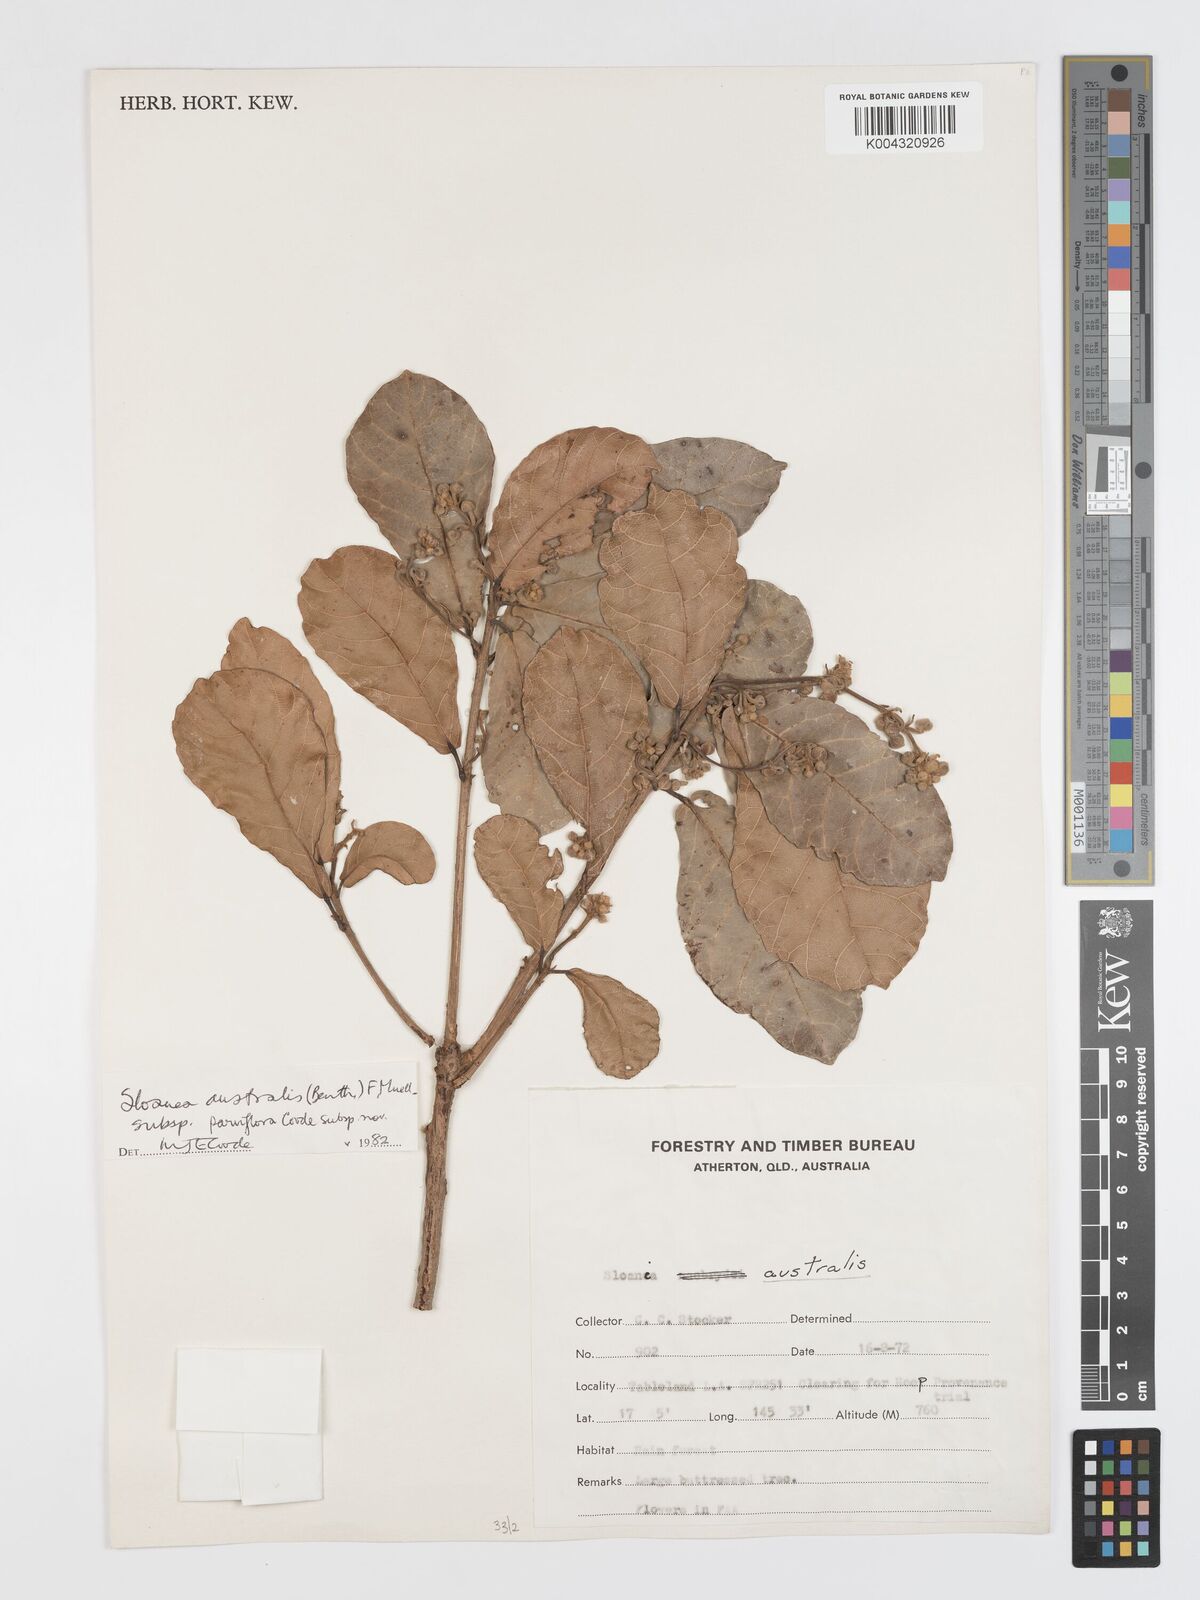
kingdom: Plantae
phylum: Tracheophyta
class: Magnoliopsida
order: Oxalidales
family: Elaeocarpaceae
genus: Sloanea
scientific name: Sloanea australis
